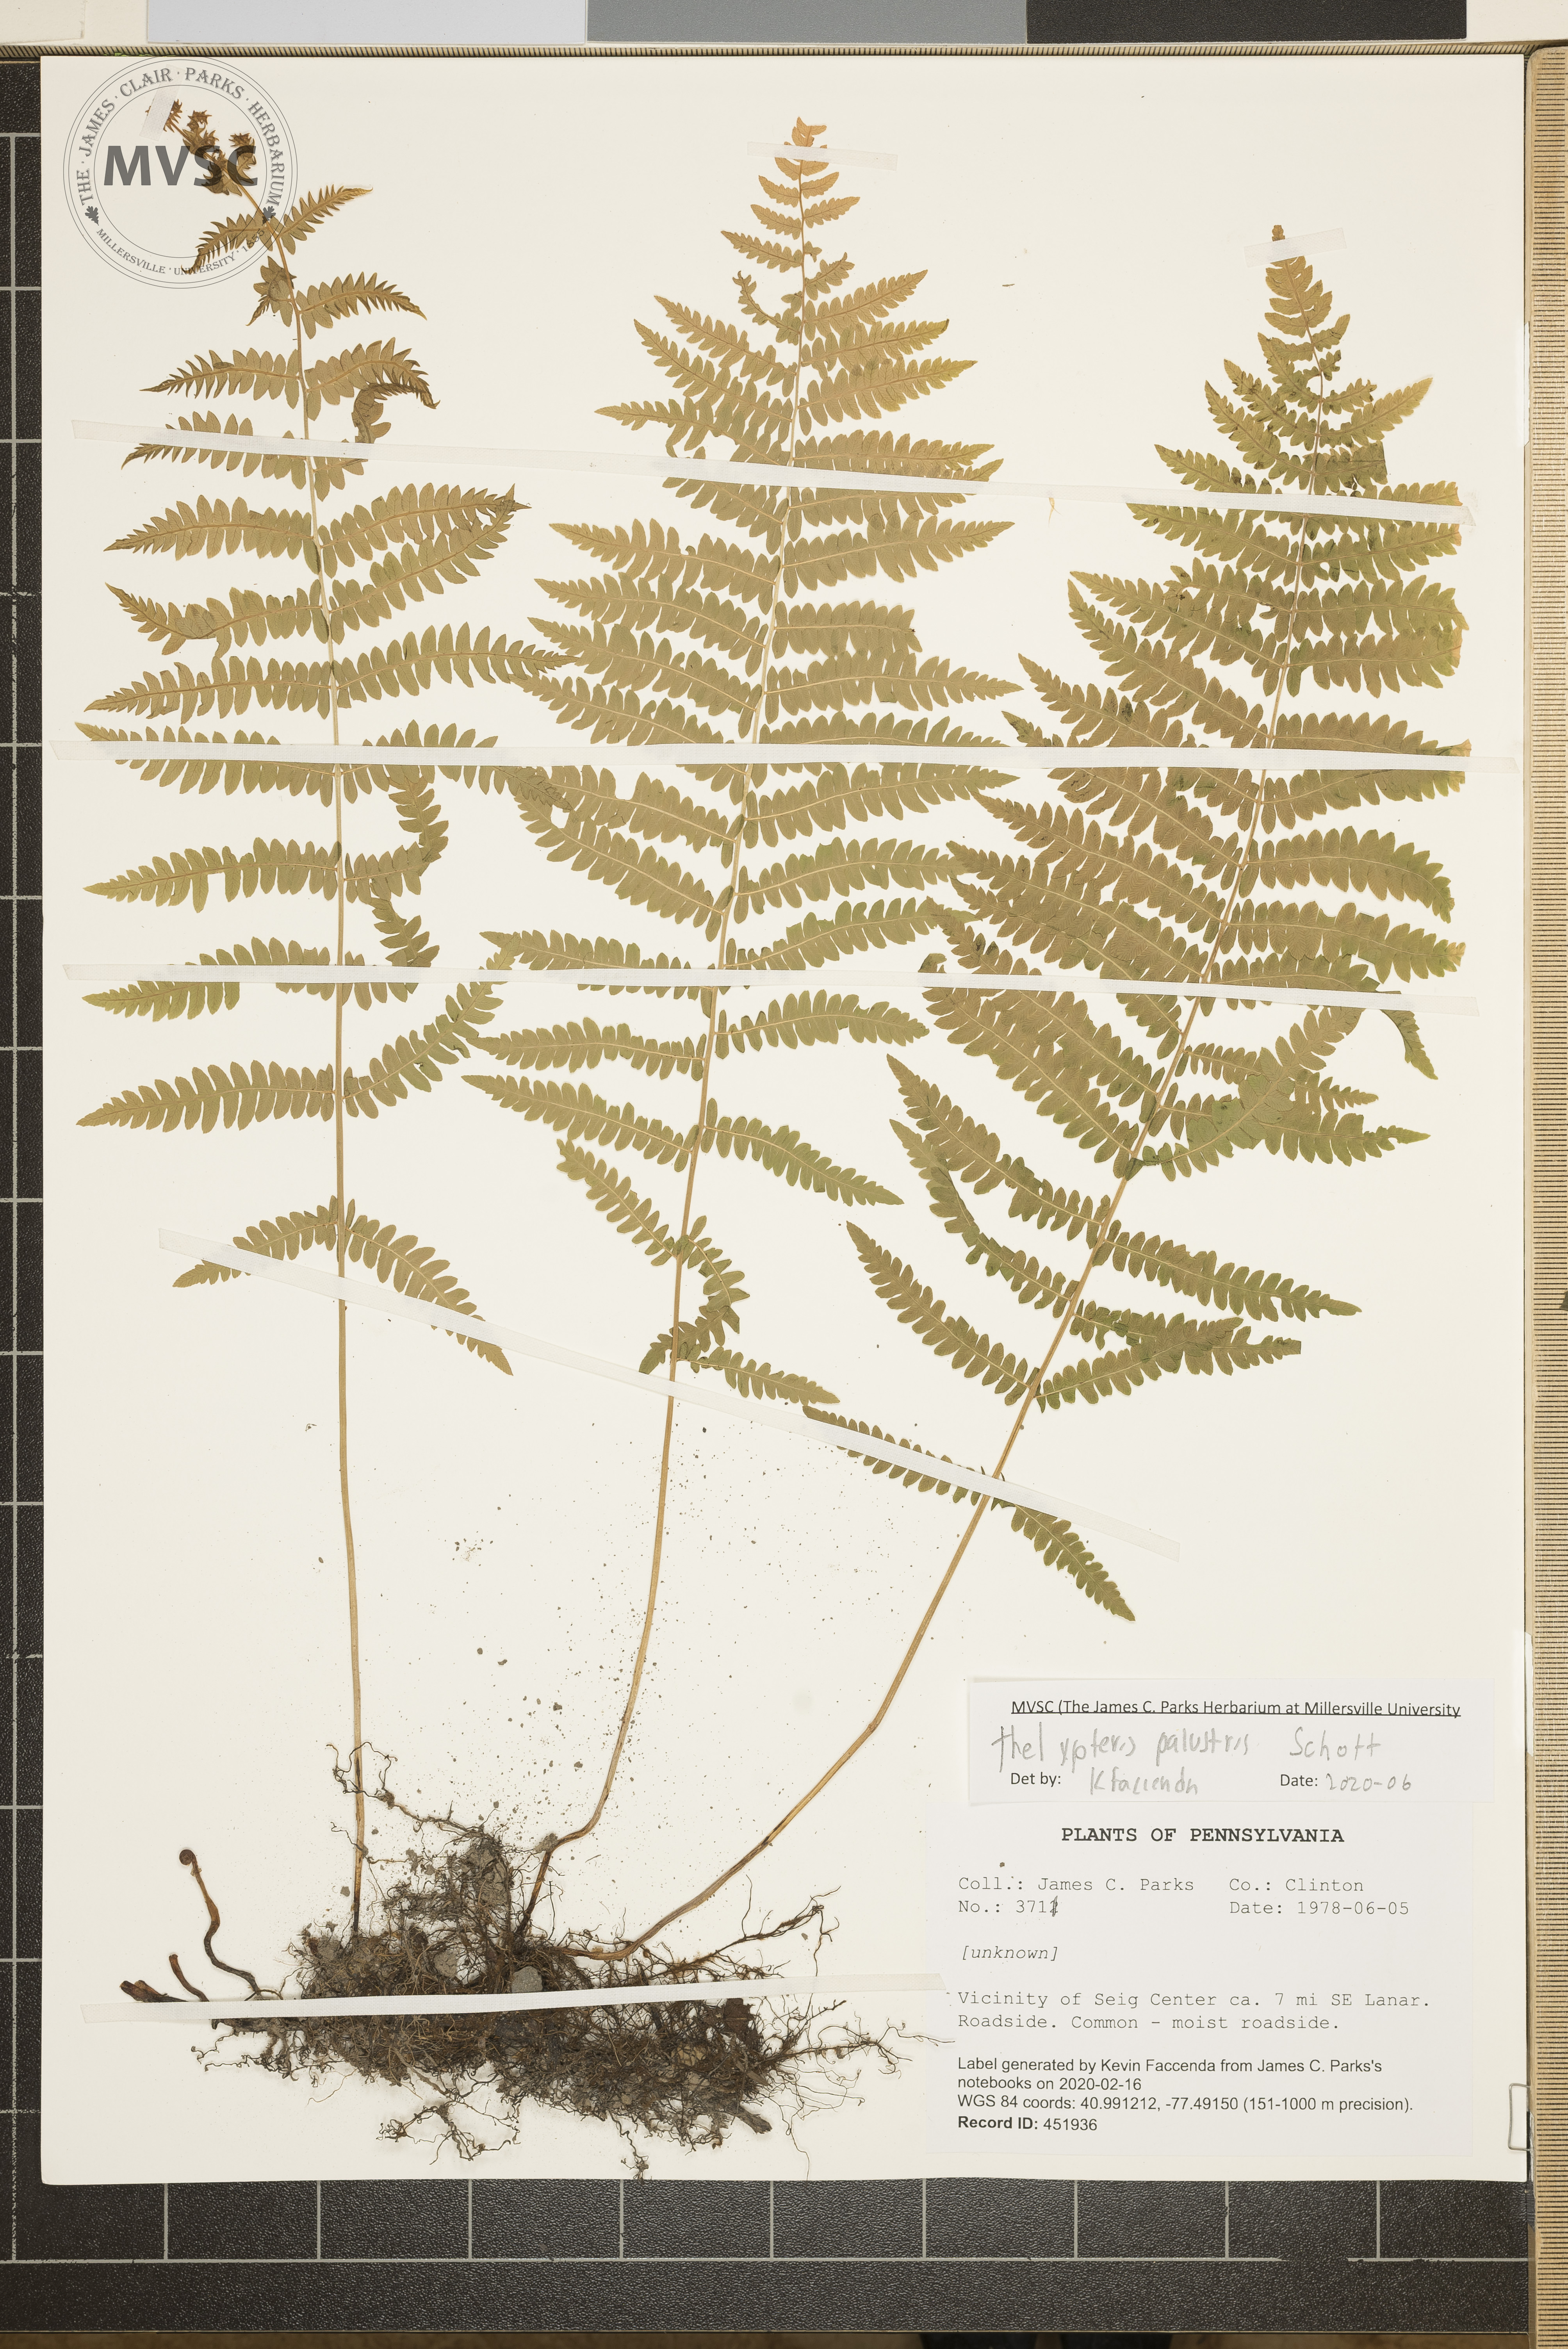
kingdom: Plantae
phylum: Tracheophyta
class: Polypodiopsida
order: Polypodiales
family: Thelypteridaceae
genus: Thelypteris
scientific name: Thelypteris palustris
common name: Marsh fern
